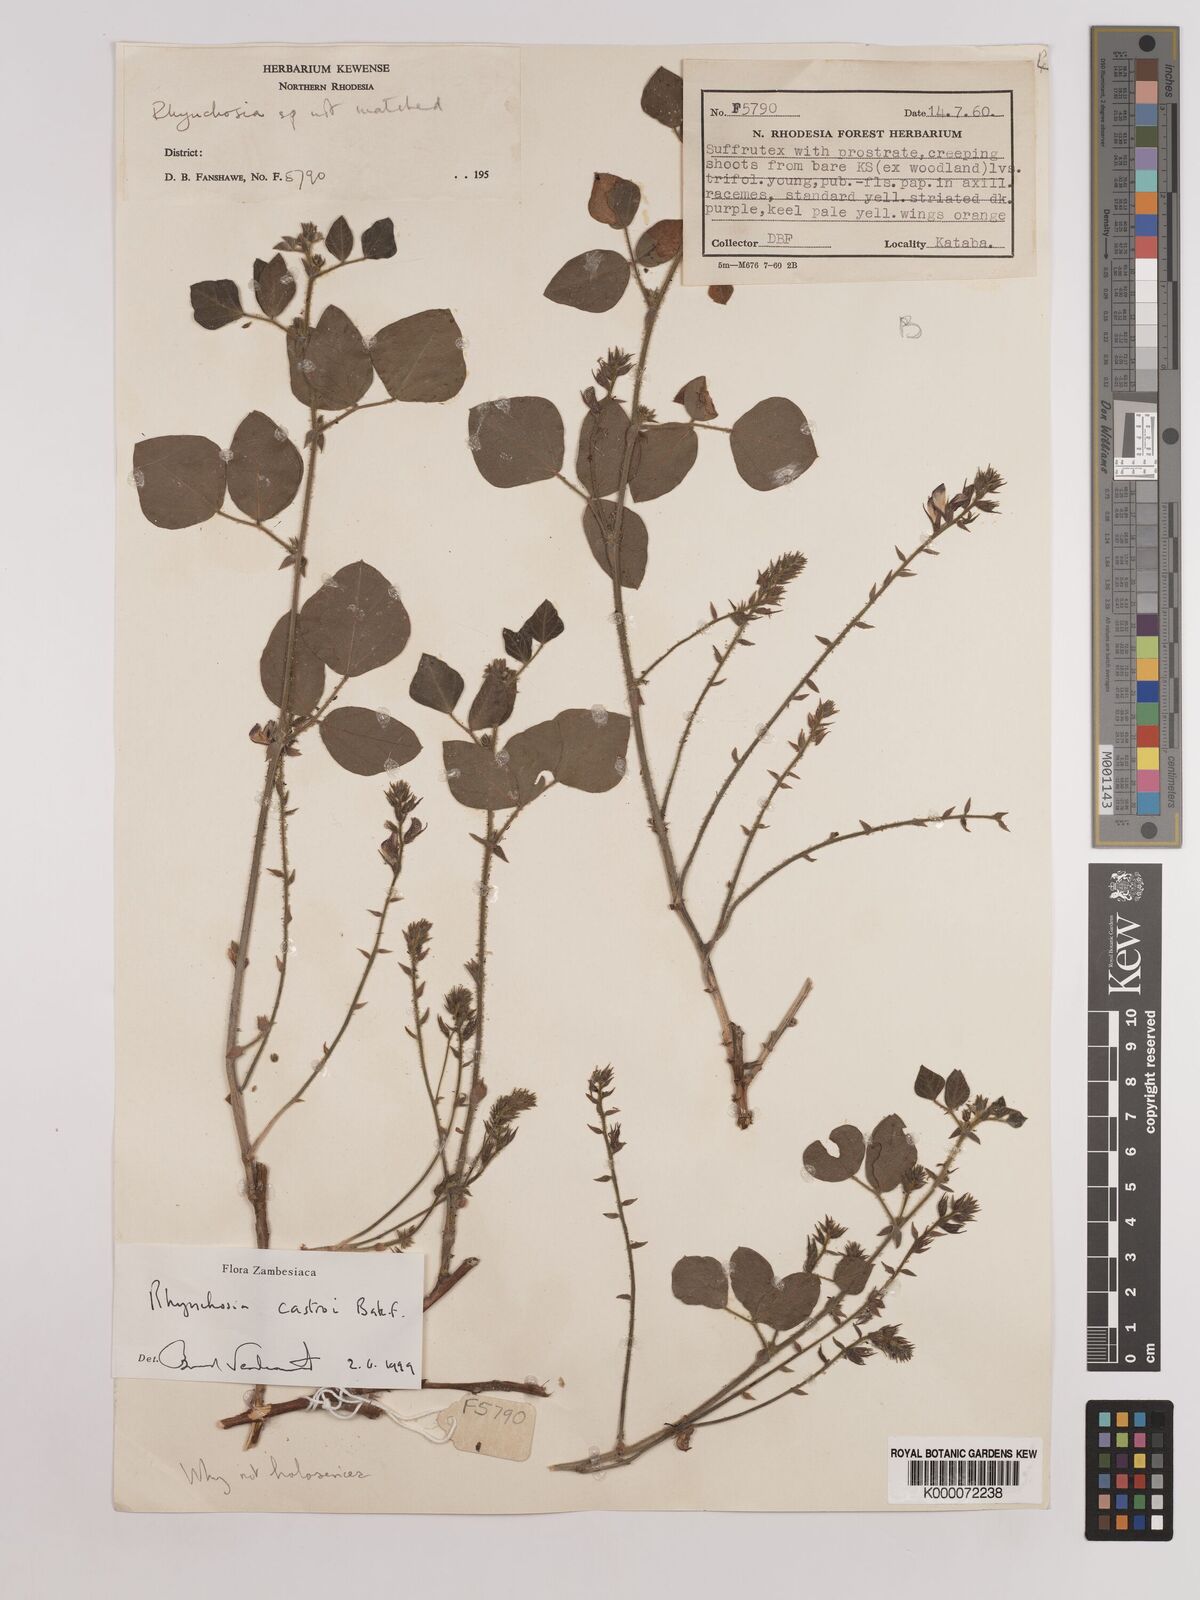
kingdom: Plantae
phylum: Tracheophyta
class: Magnoliopsida
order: Fabales
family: Fabaceae
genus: Rhynchosia
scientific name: Rhynchosia castroi
